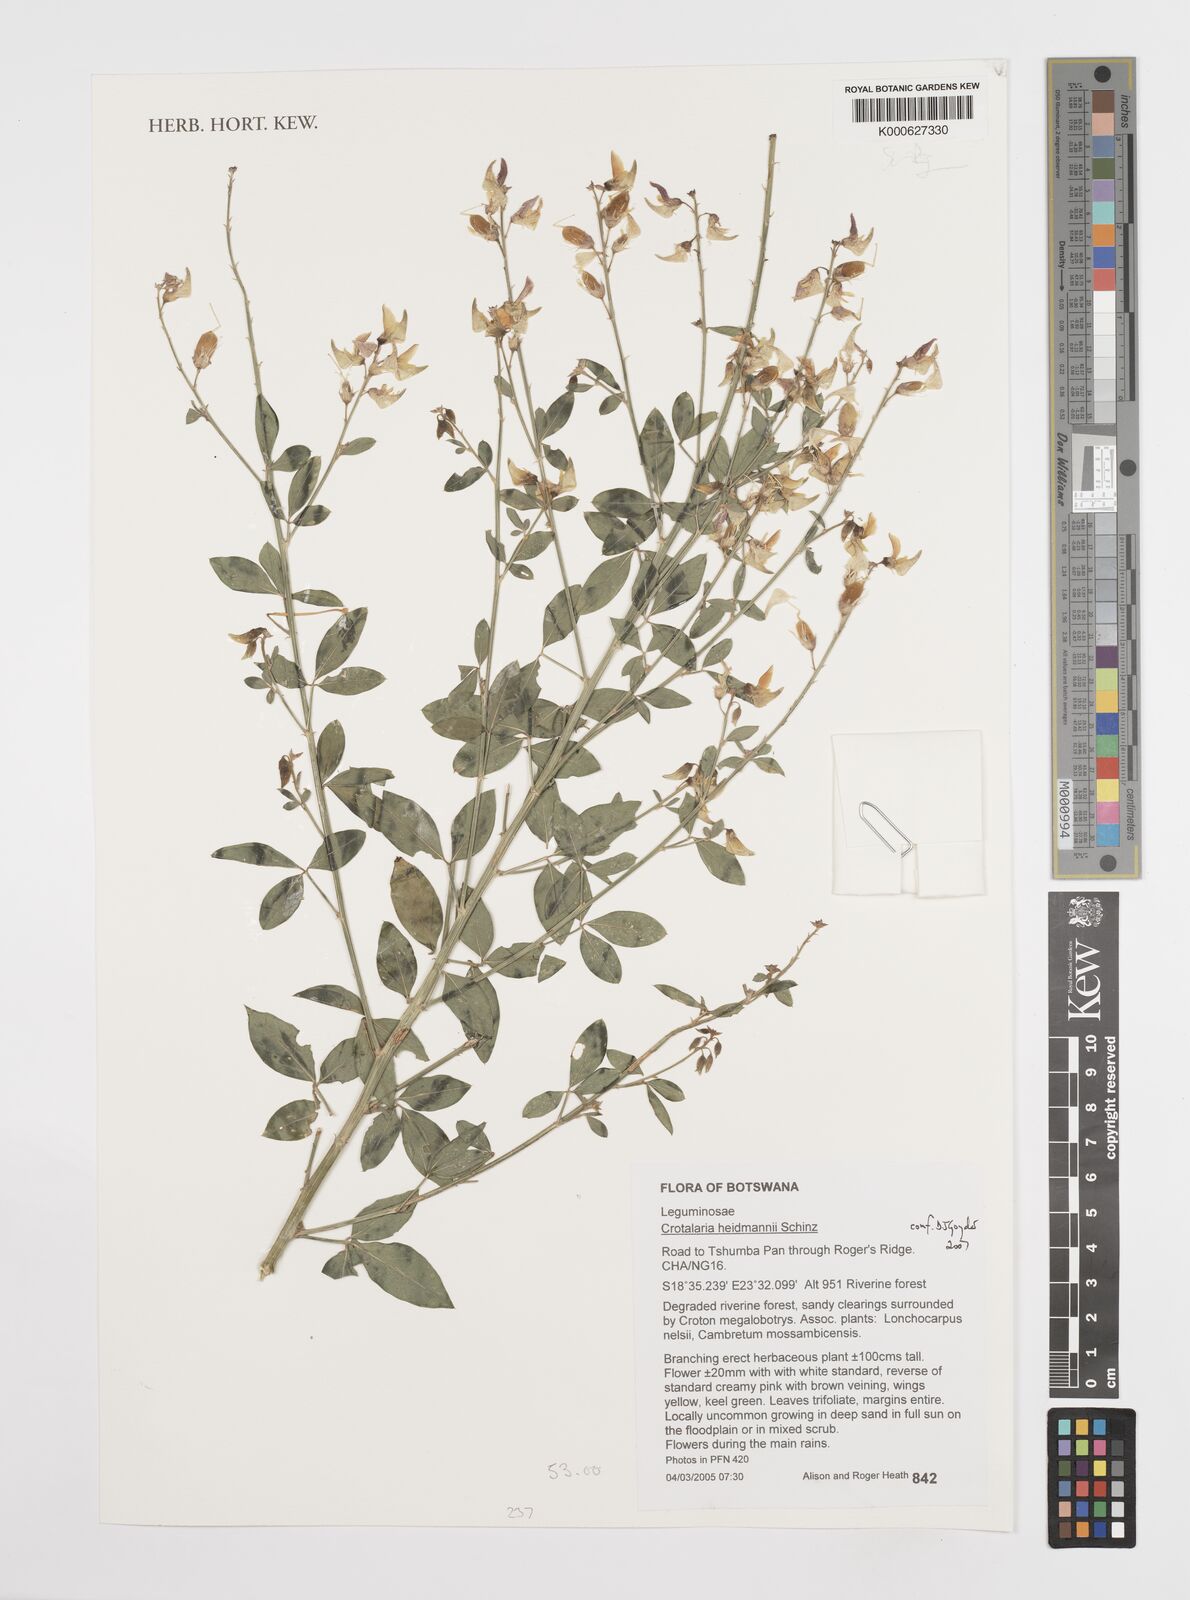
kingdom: Plantae
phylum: Tracheophyta
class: Magnoliopsida
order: Fabales
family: Fabaceae
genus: Crotalaria
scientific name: Crotalaria heidmannii
